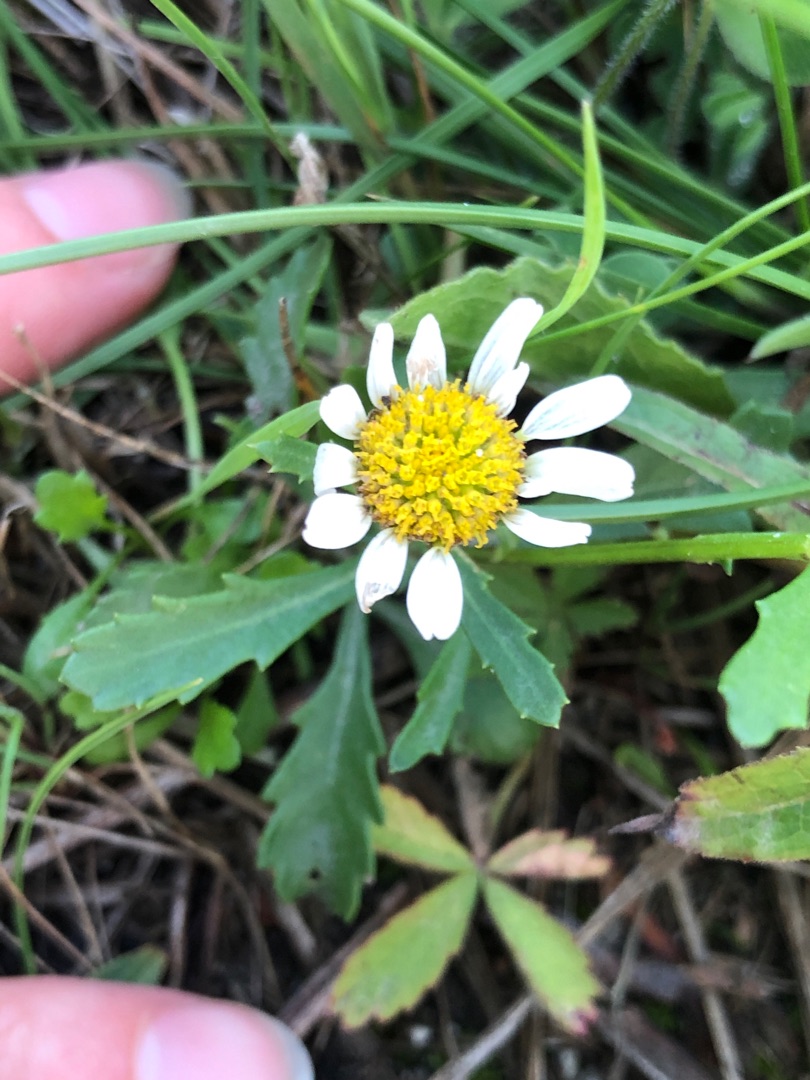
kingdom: Plantae
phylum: Tracheophyta
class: Magnoliopsida
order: Asterales
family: Asteraceae
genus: Leucanthemum
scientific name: Leucanthemum vulgare
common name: Hvid okseøje
